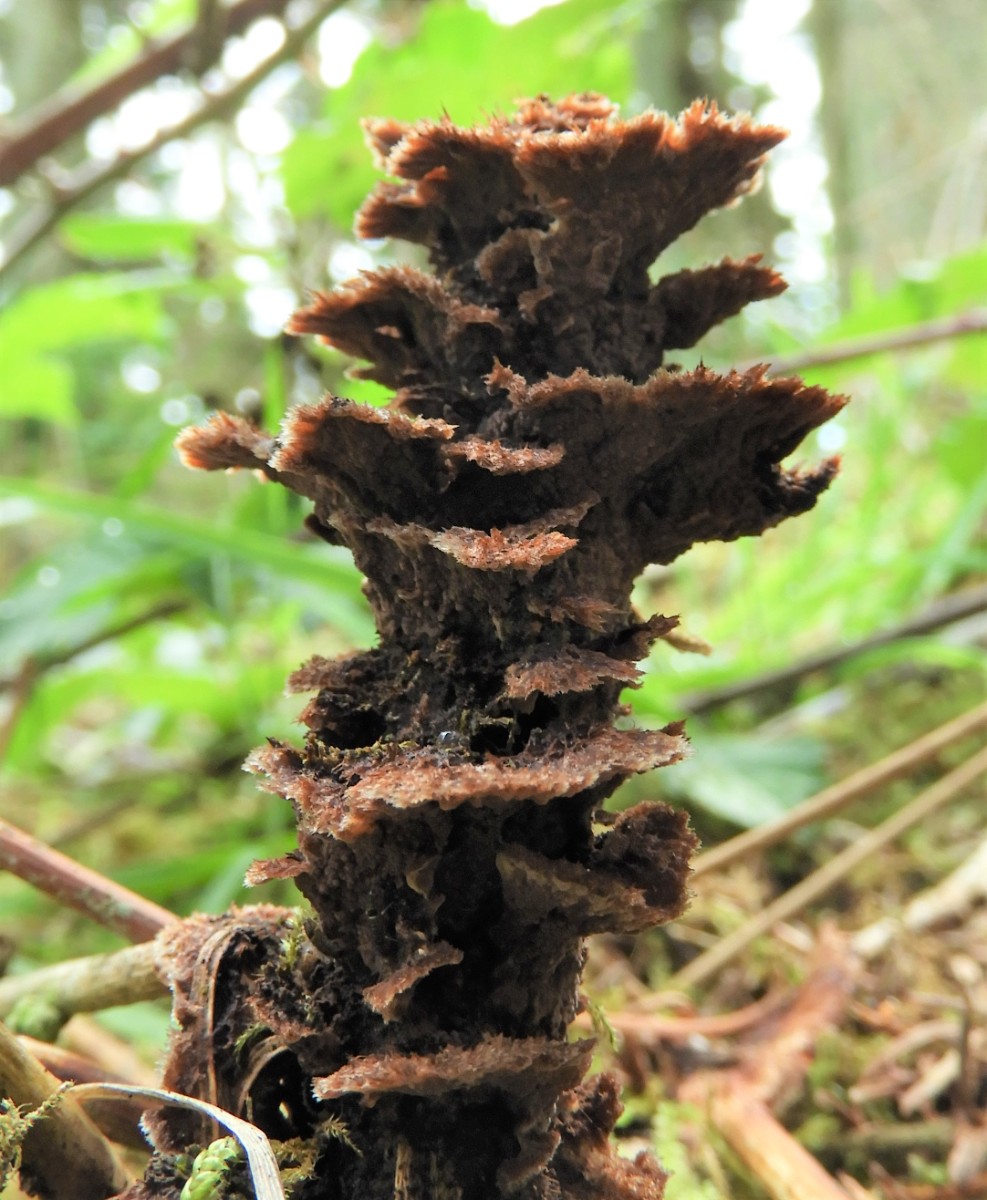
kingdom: Fungi
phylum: Basidiomycota
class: Agaricomycetes
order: Thelephorales
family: Thelephoraceae
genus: Thelephora
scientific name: Thelephora terrestris
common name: fliget frynsesvamp
